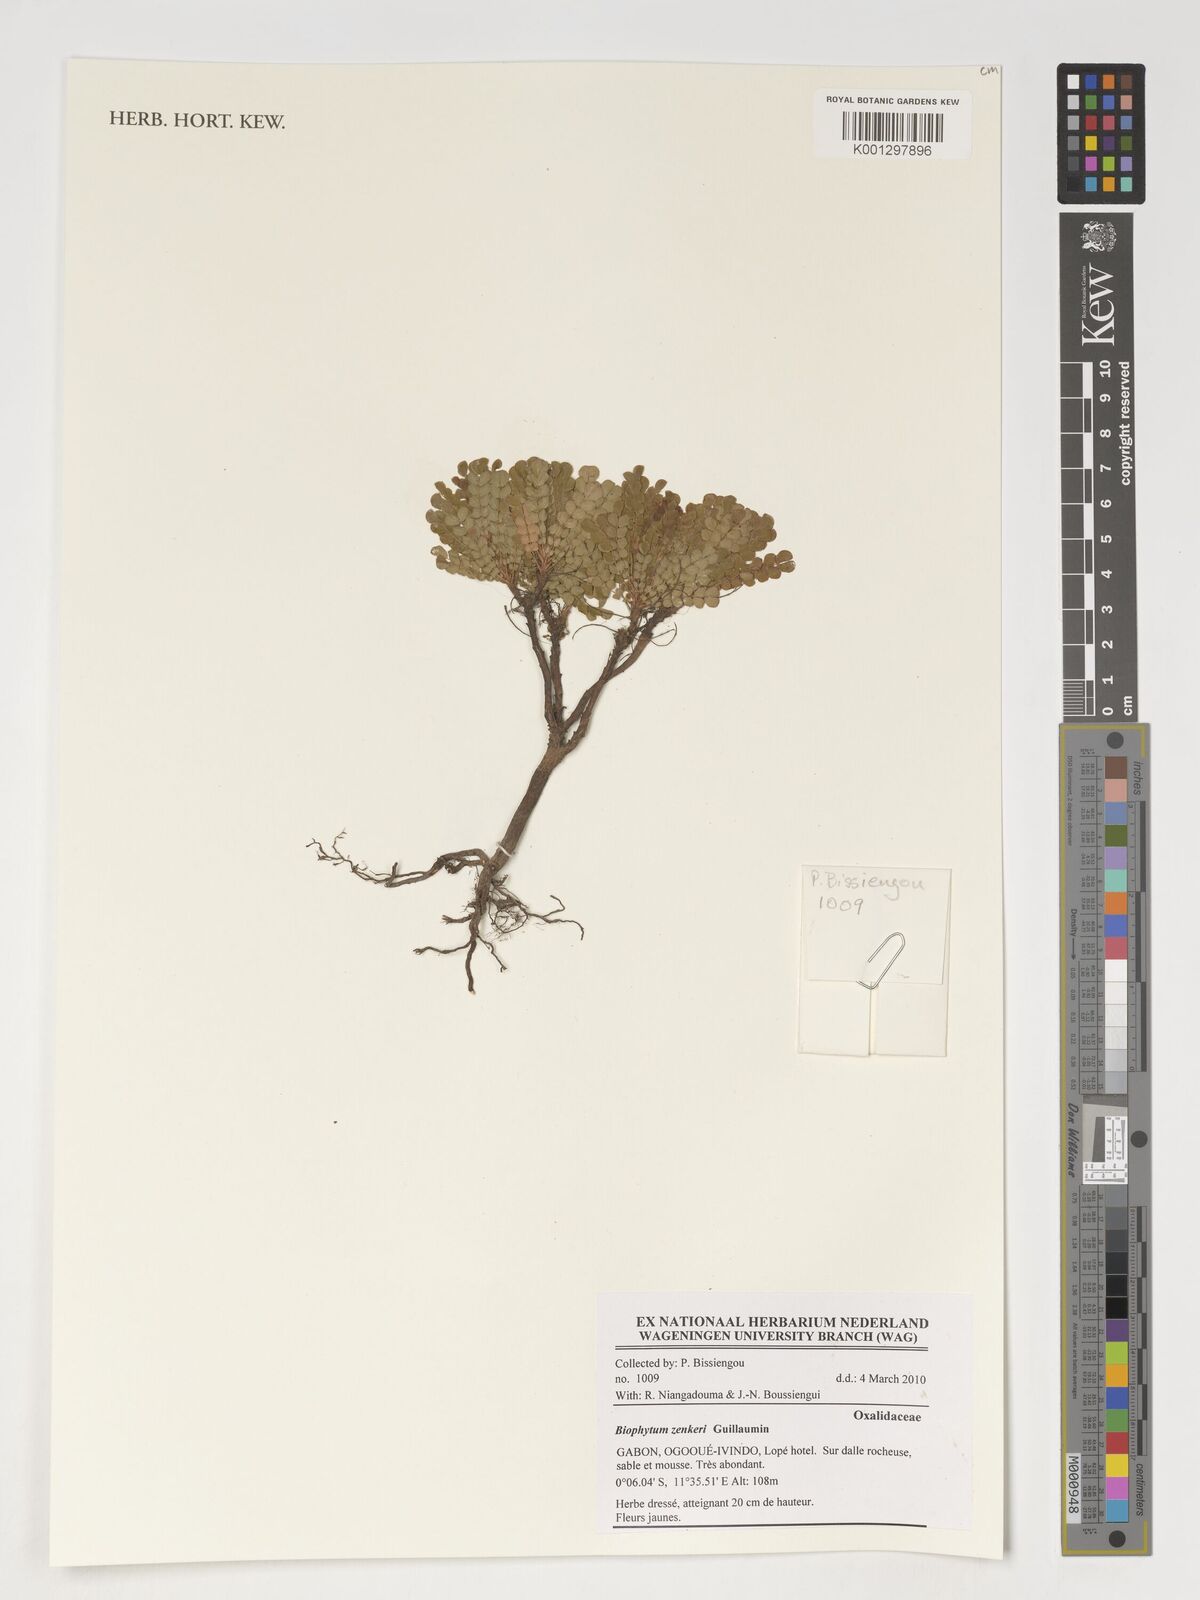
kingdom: Plantae
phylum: Tracheophyta
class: Magnoliopsida
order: Oxalidales
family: Oxalidaceae
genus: Biophytum
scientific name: Biophytum zenkeri
